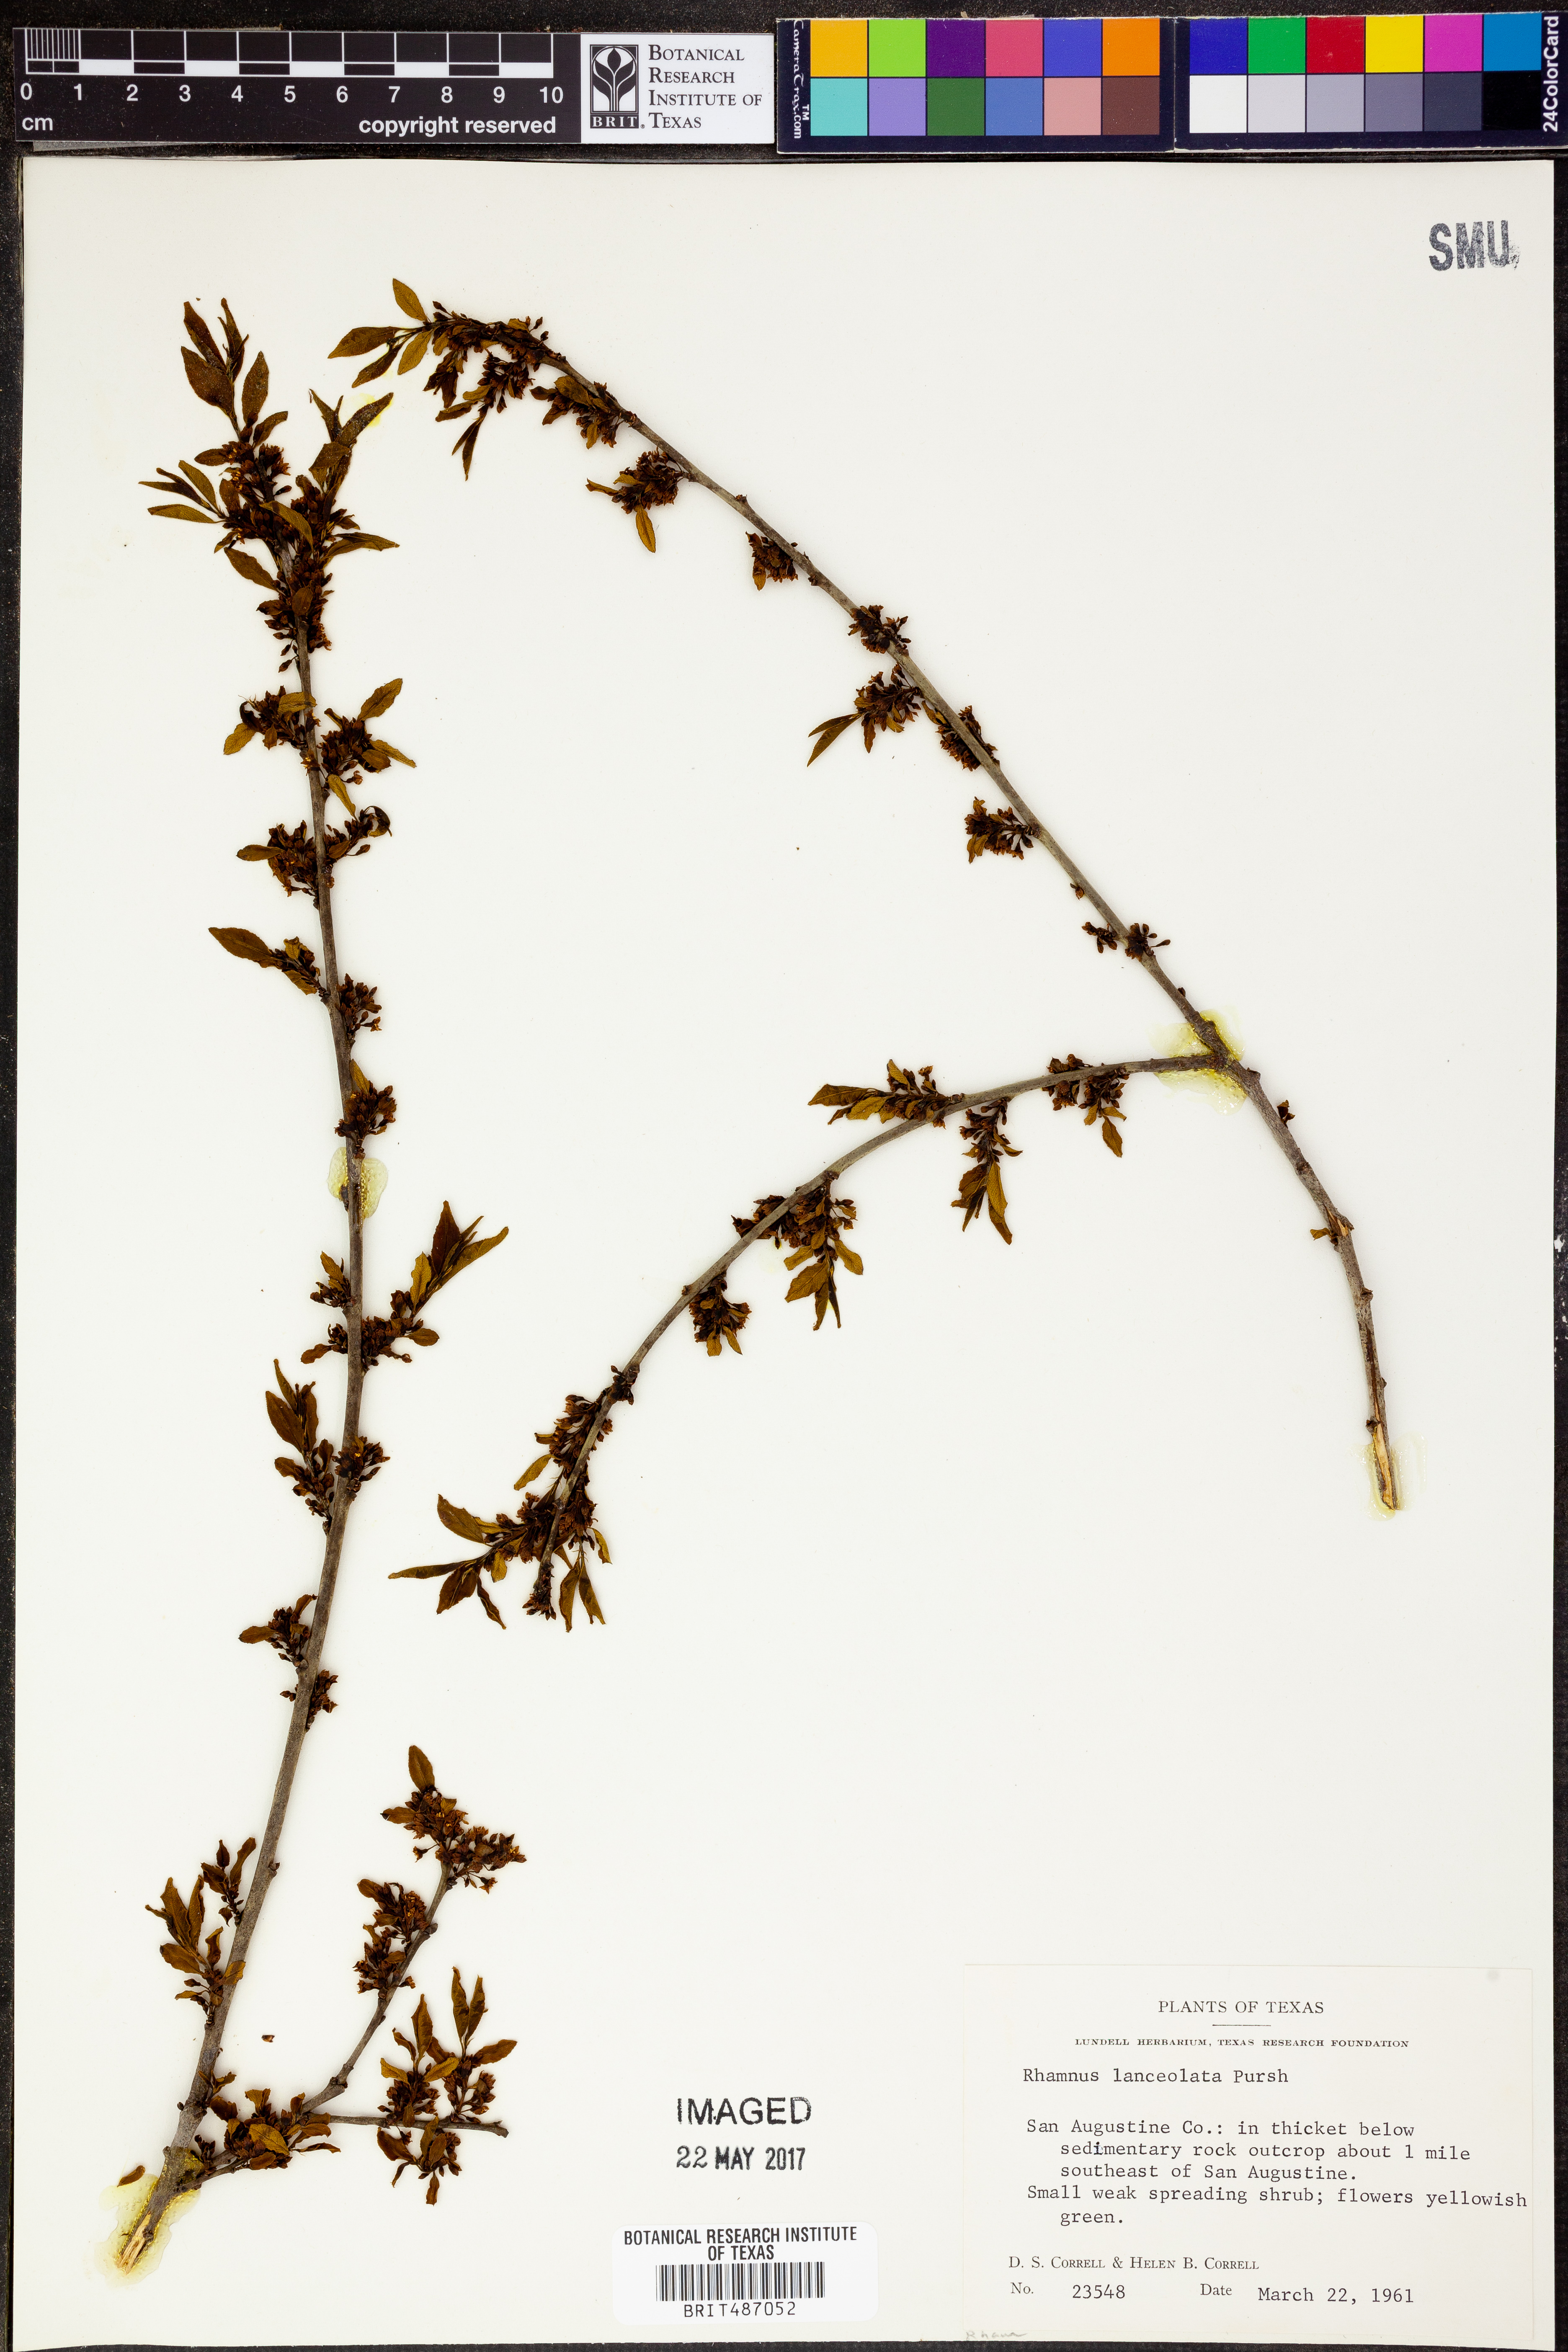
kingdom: Plantae
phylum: Tracheophyta
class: Magnoliopsida
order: Rosales
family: Rhamnaceae
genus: Endotropis
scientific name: Endotropis lanceolata
